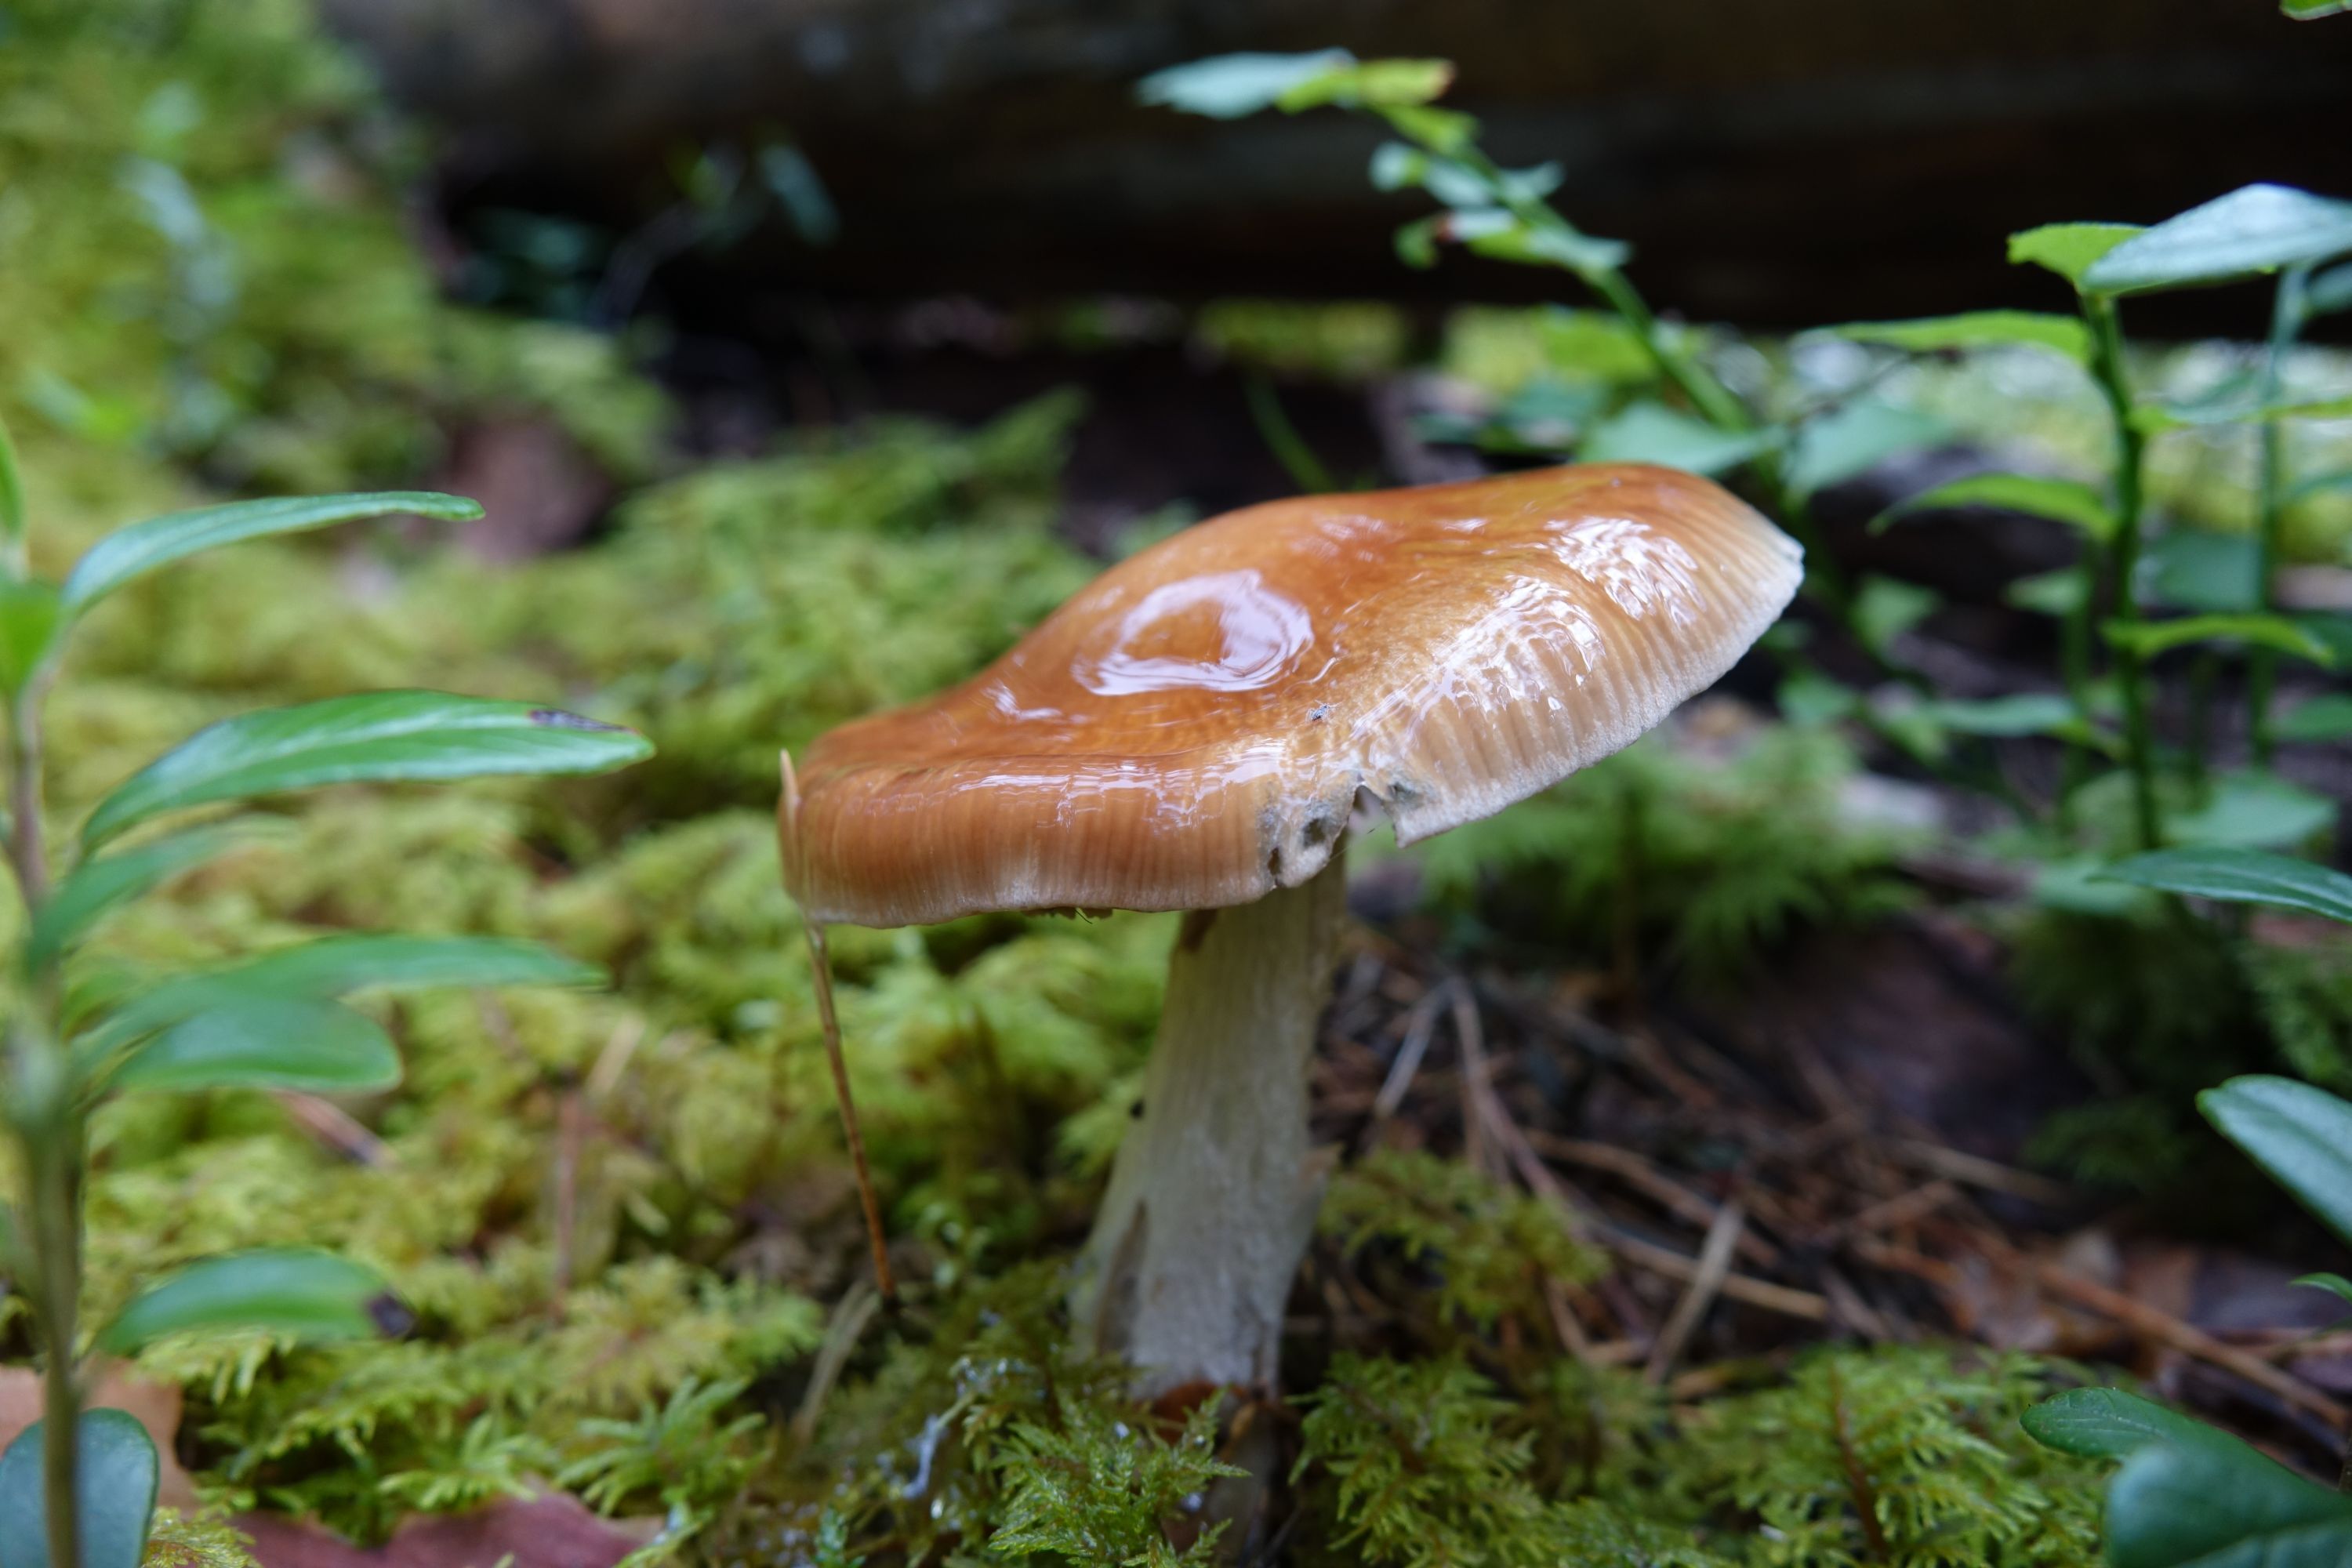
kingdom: Fungi
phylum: Basidiomycota
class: Agaricomycetes
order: Agaricales
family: Cortinariaceae
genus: Cortinarius
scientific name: Cortinarius stillatitius
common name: Purple stocking webcap
